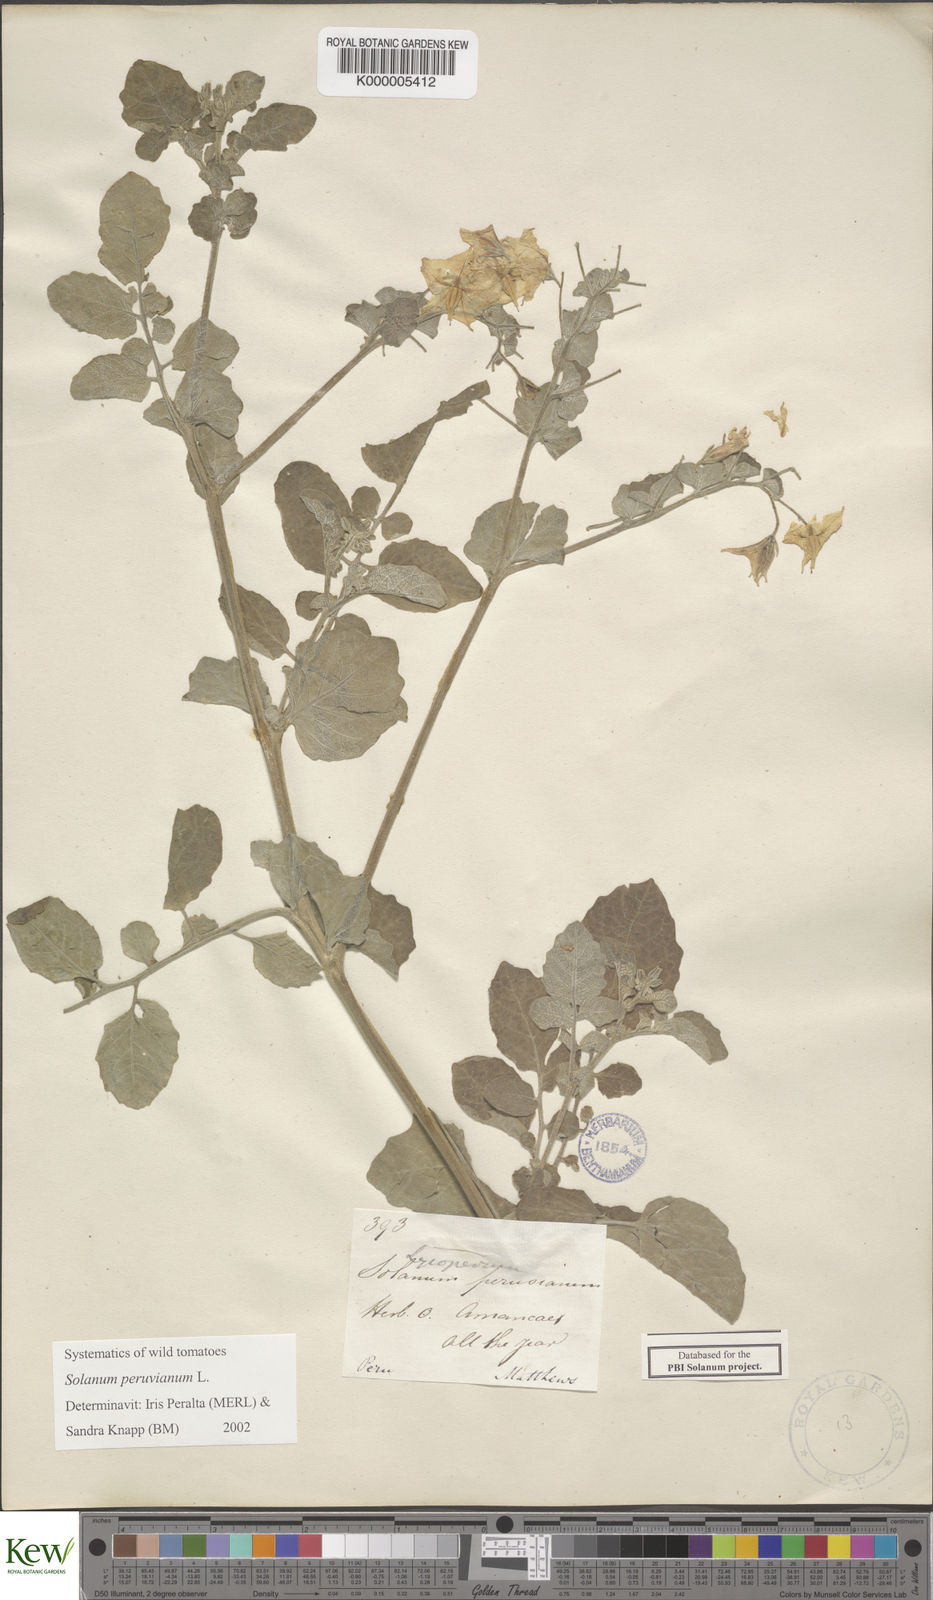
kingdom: Plantae
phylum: Tracheophyta
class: Magnoliopsida
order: Solanales
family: Solanaceae
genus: Solanum
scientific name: Solanum peruvianum
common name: Peruvian nightshade
